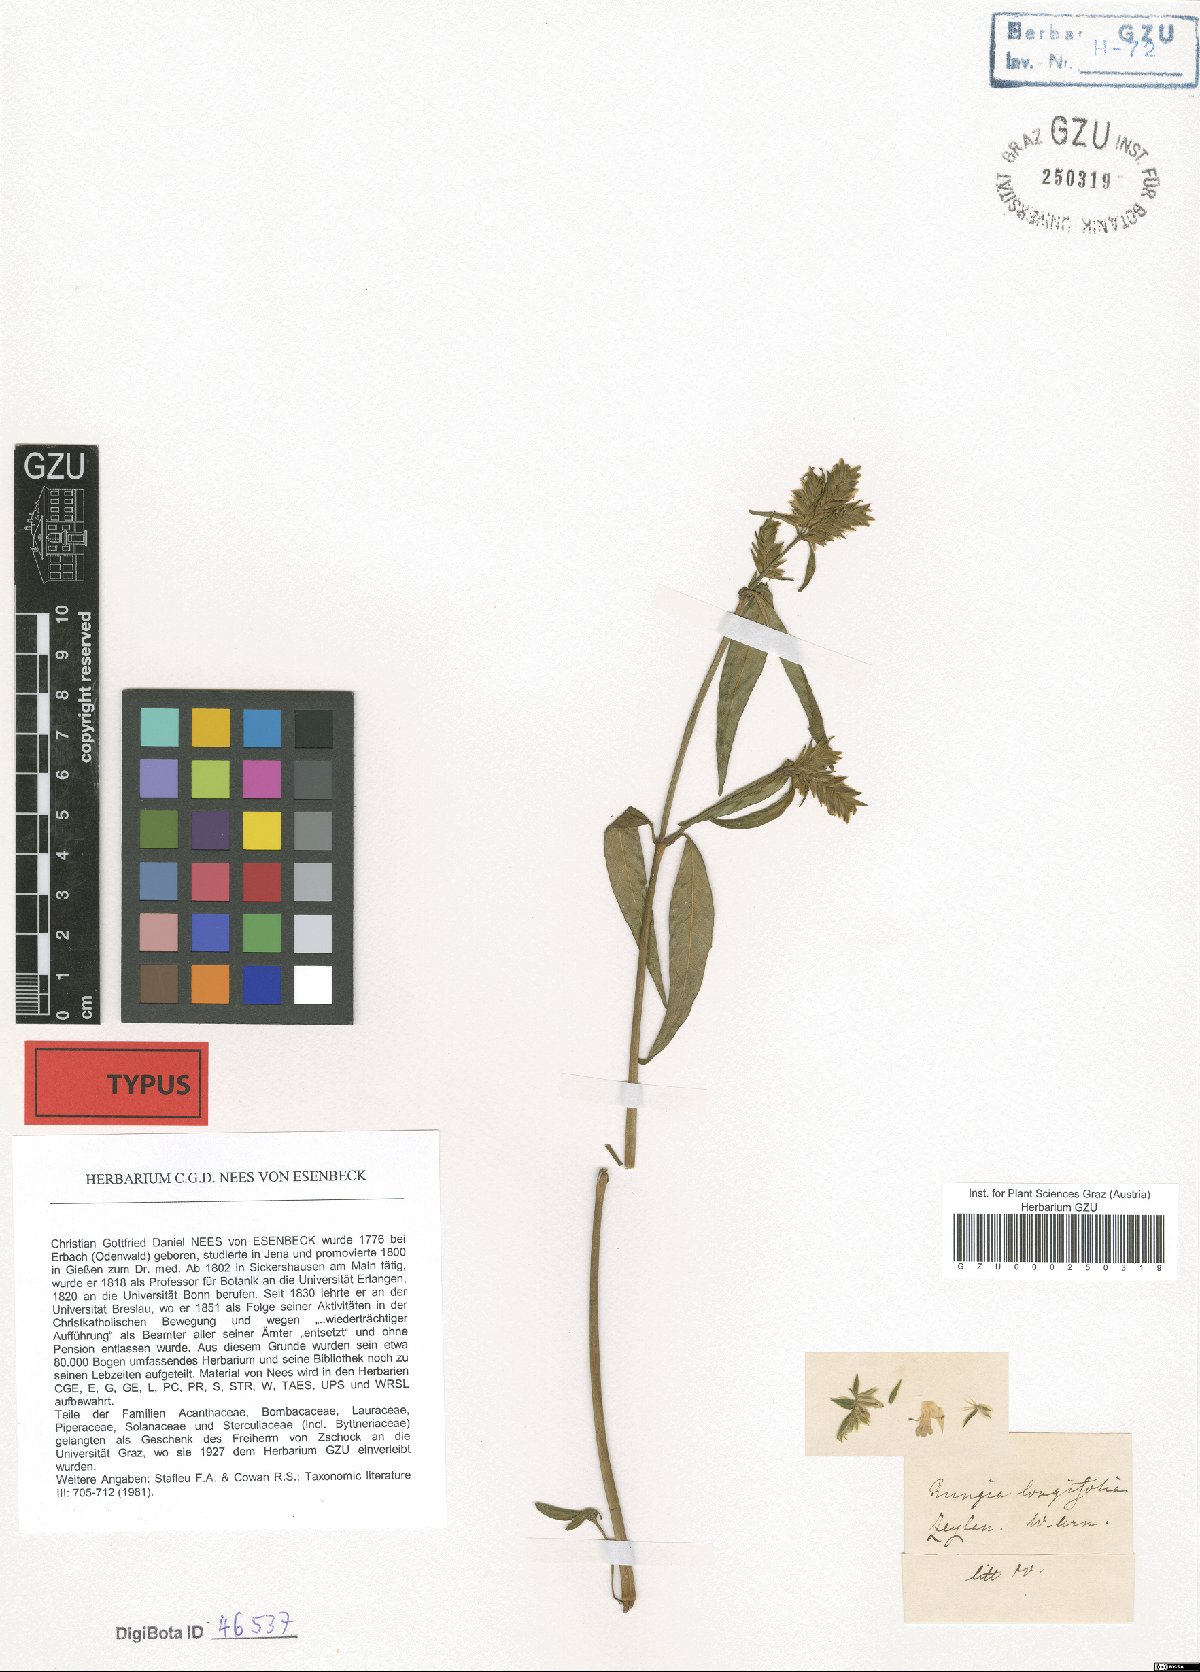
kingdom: Plantae
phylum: Tracheophyta
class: Magnoliopsida
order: Lamiales
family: Acanthaceae
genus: Rungia
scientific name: Rungia longifolia
